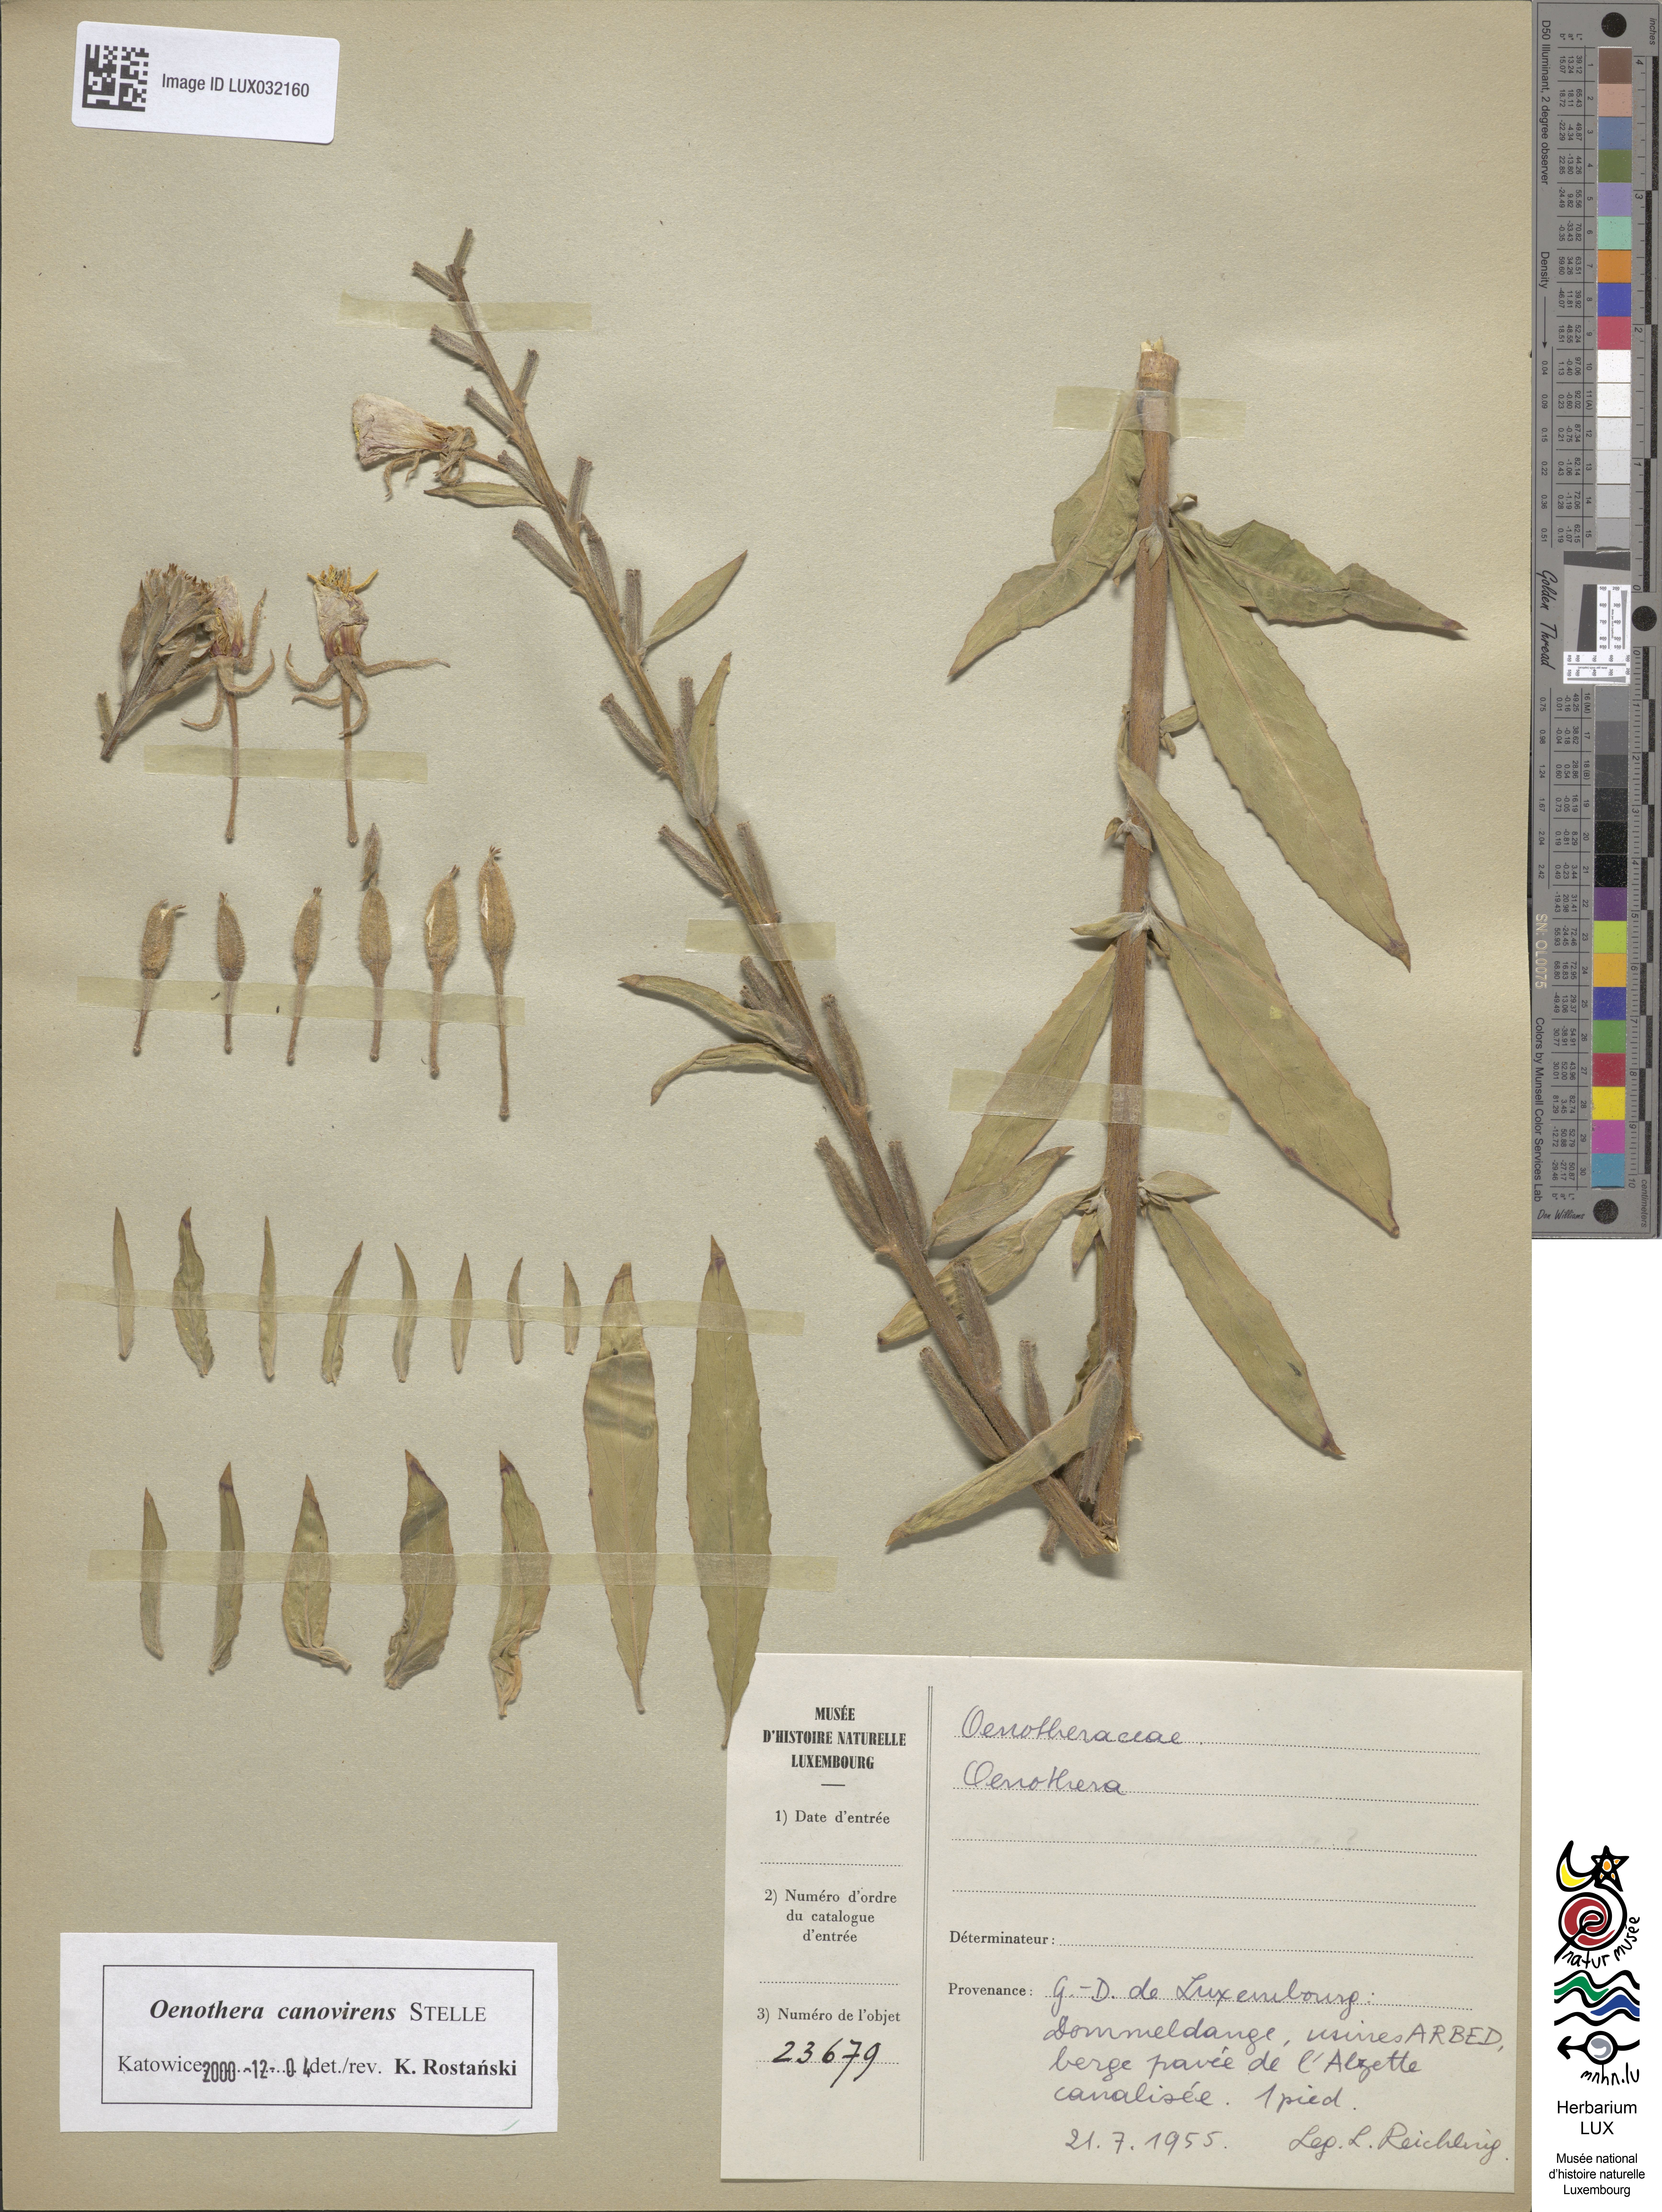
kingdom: Plantae
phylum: Tracheophyta
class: Magnoliopsida
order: Myrtales
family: Onagraceae
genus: Oenothera
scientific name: Oenothera
